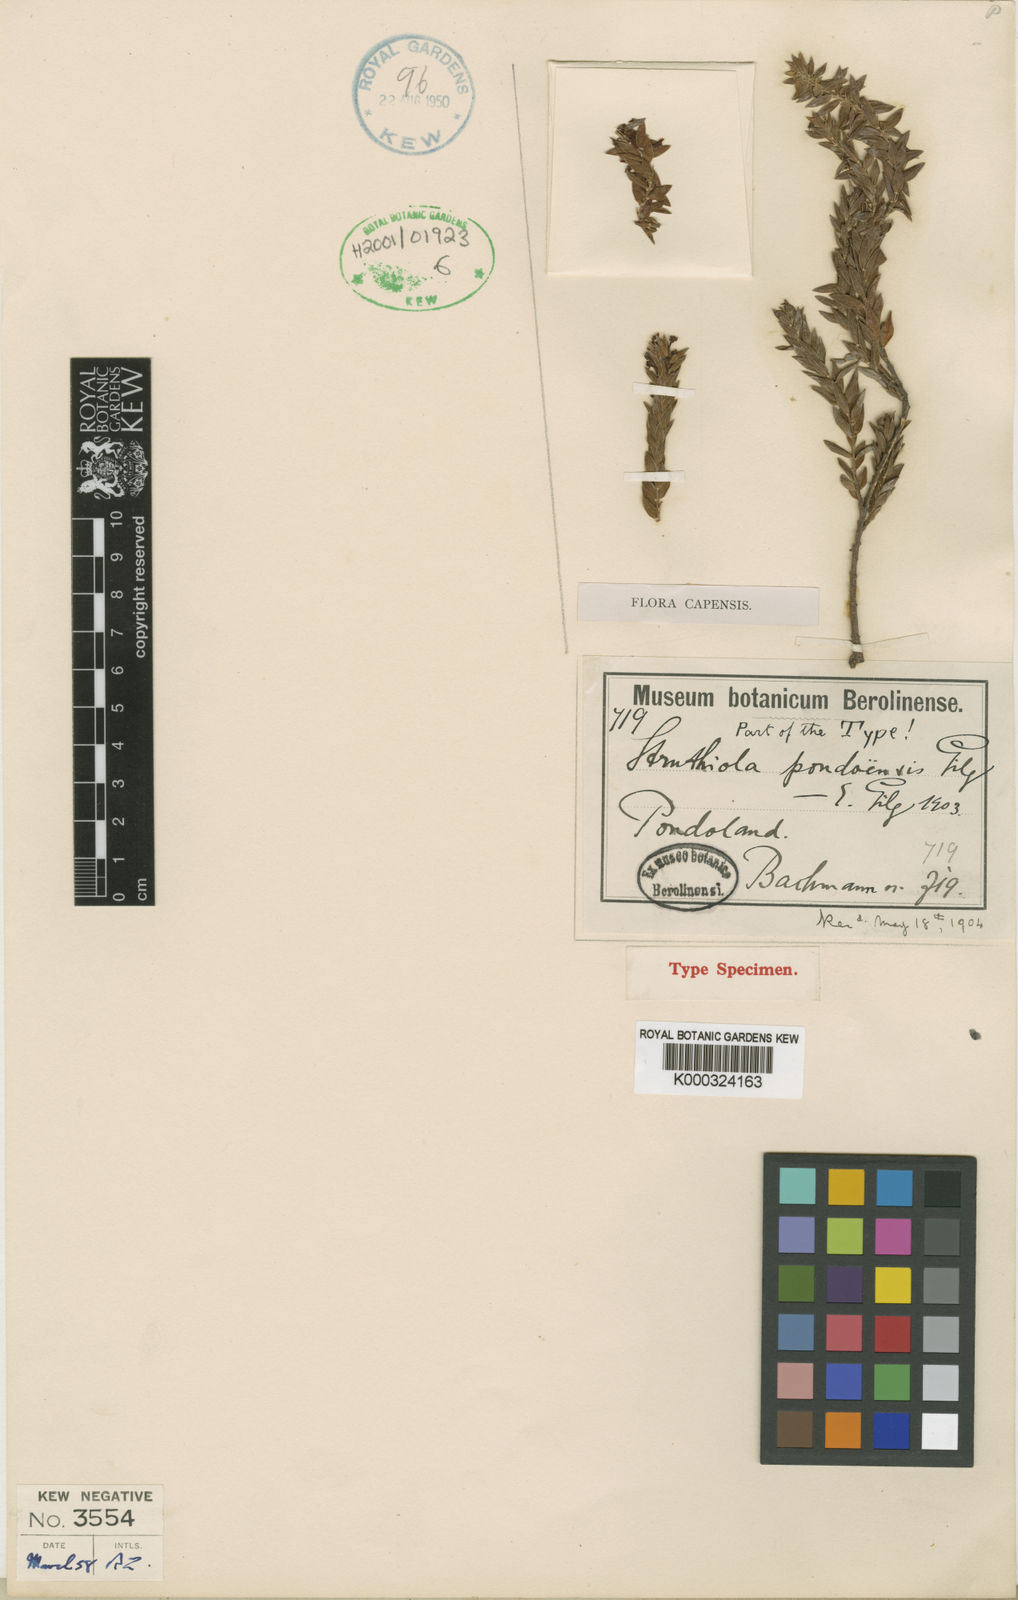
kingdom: Plantae
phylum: Tracheophyta
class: Magnoliopsida
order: Malvales
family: Thymelaeaceae
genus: Struthiola
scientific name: Struthiola pondoensis
